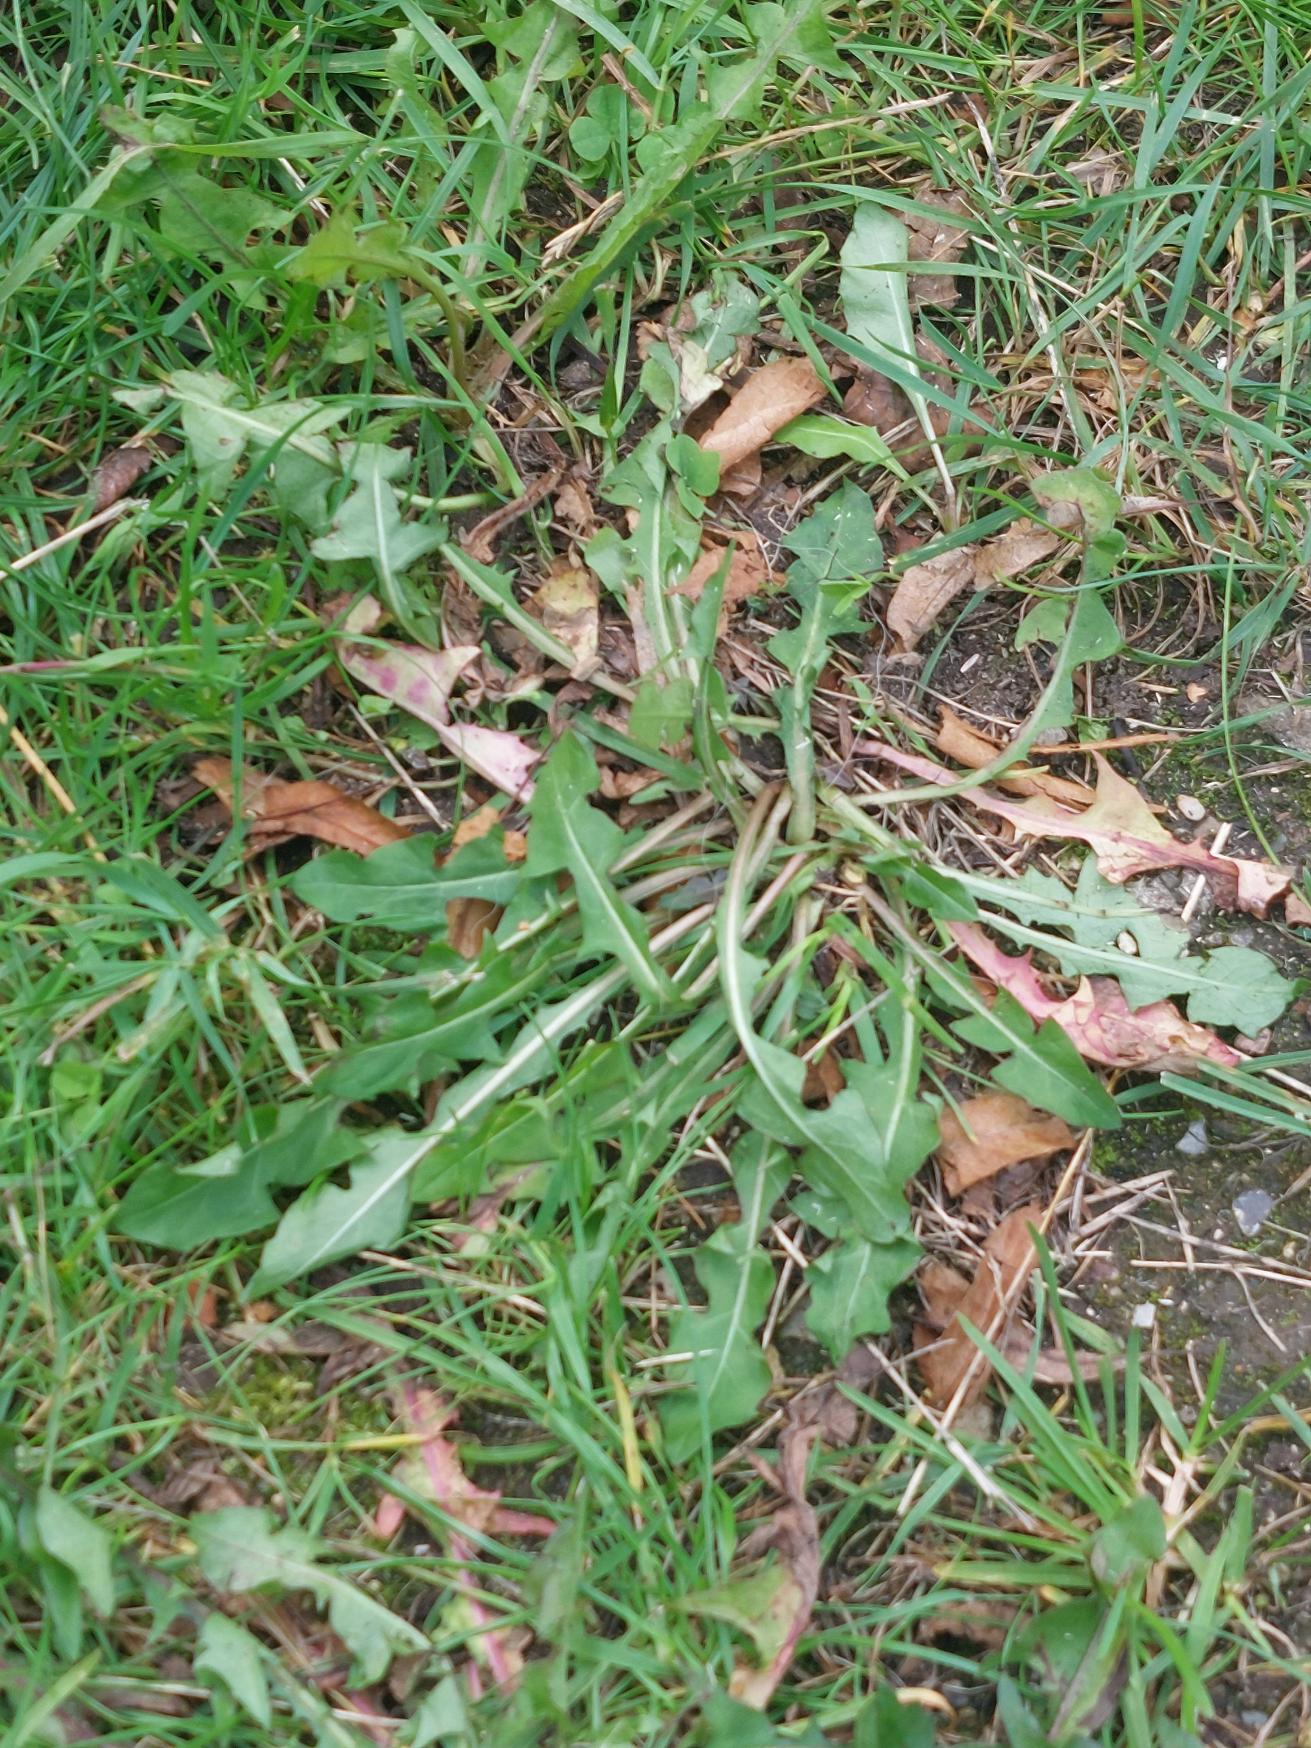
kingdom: Plantae
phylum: Tracheophyta
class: Magnoliopsida
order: Asterales
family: Asteraceae
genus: Taraxacum
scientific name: Taraxacum
